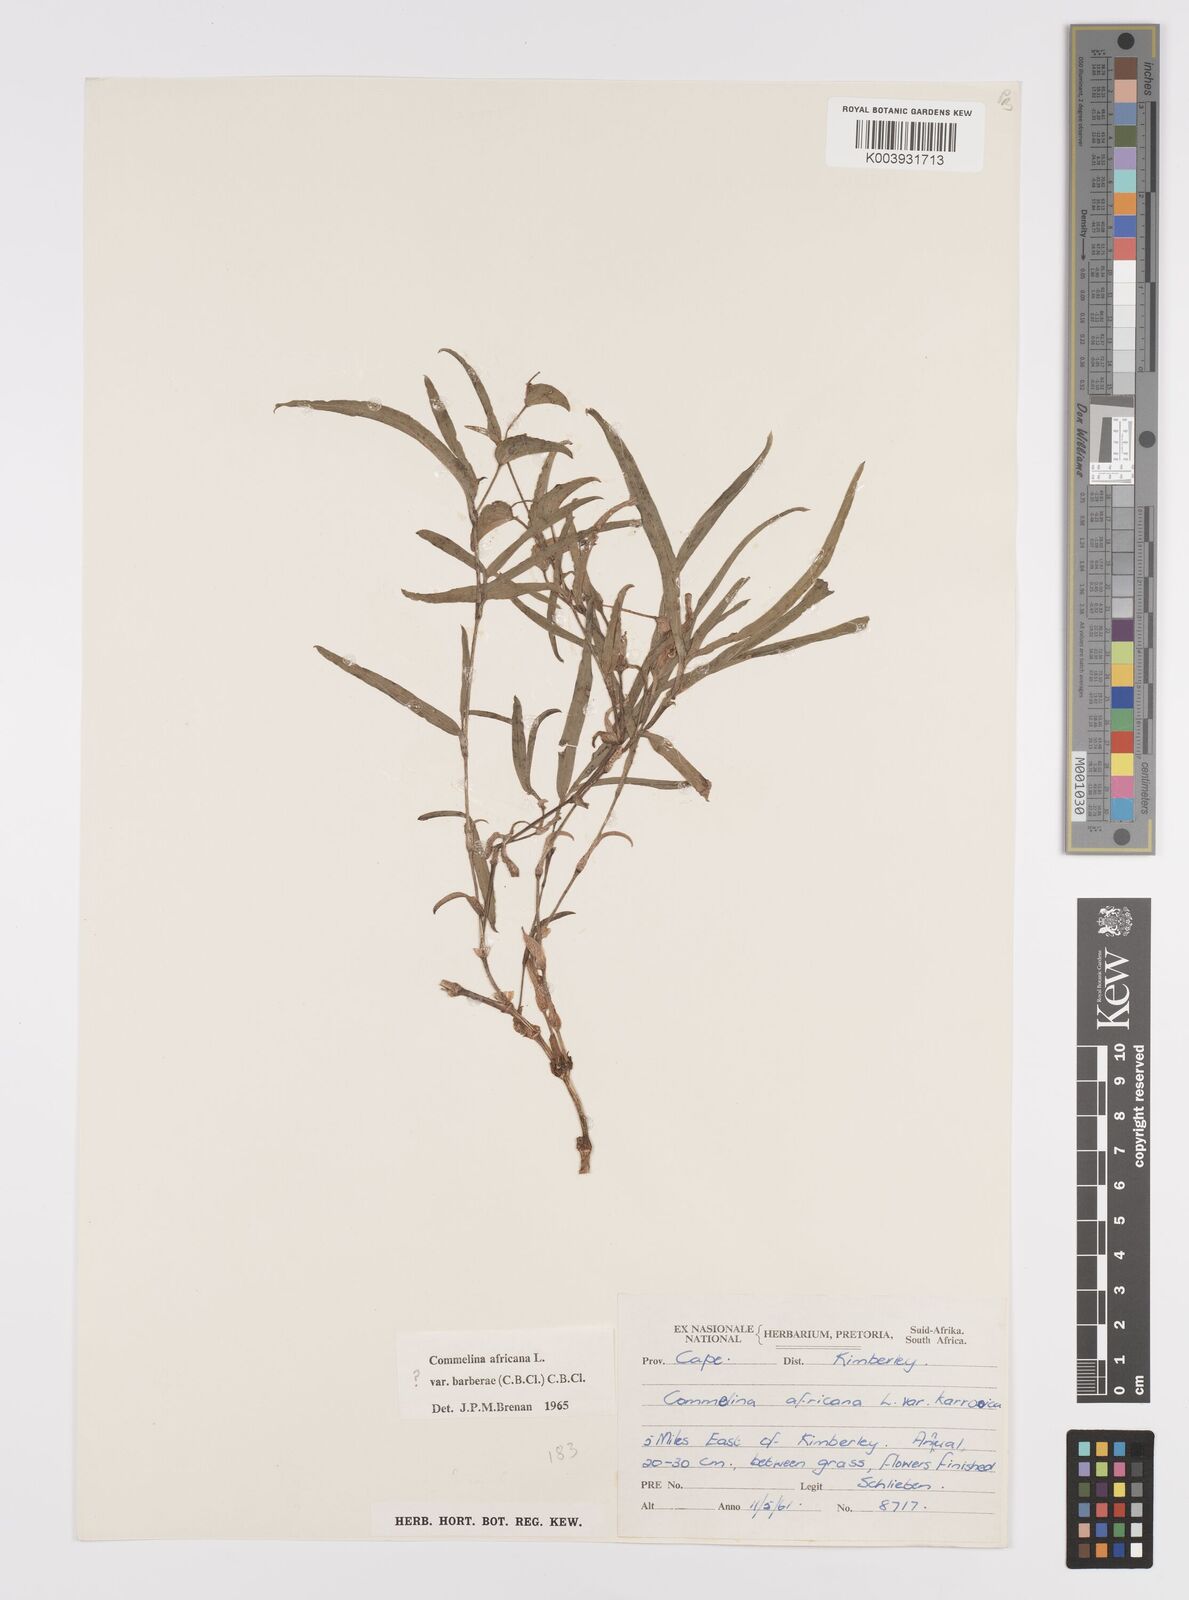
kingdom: Plantae
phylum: Tracheophyta
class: Liliopsida
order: Commelinales
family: Commelinaceae
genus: Commelina
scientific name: Commelina africana
